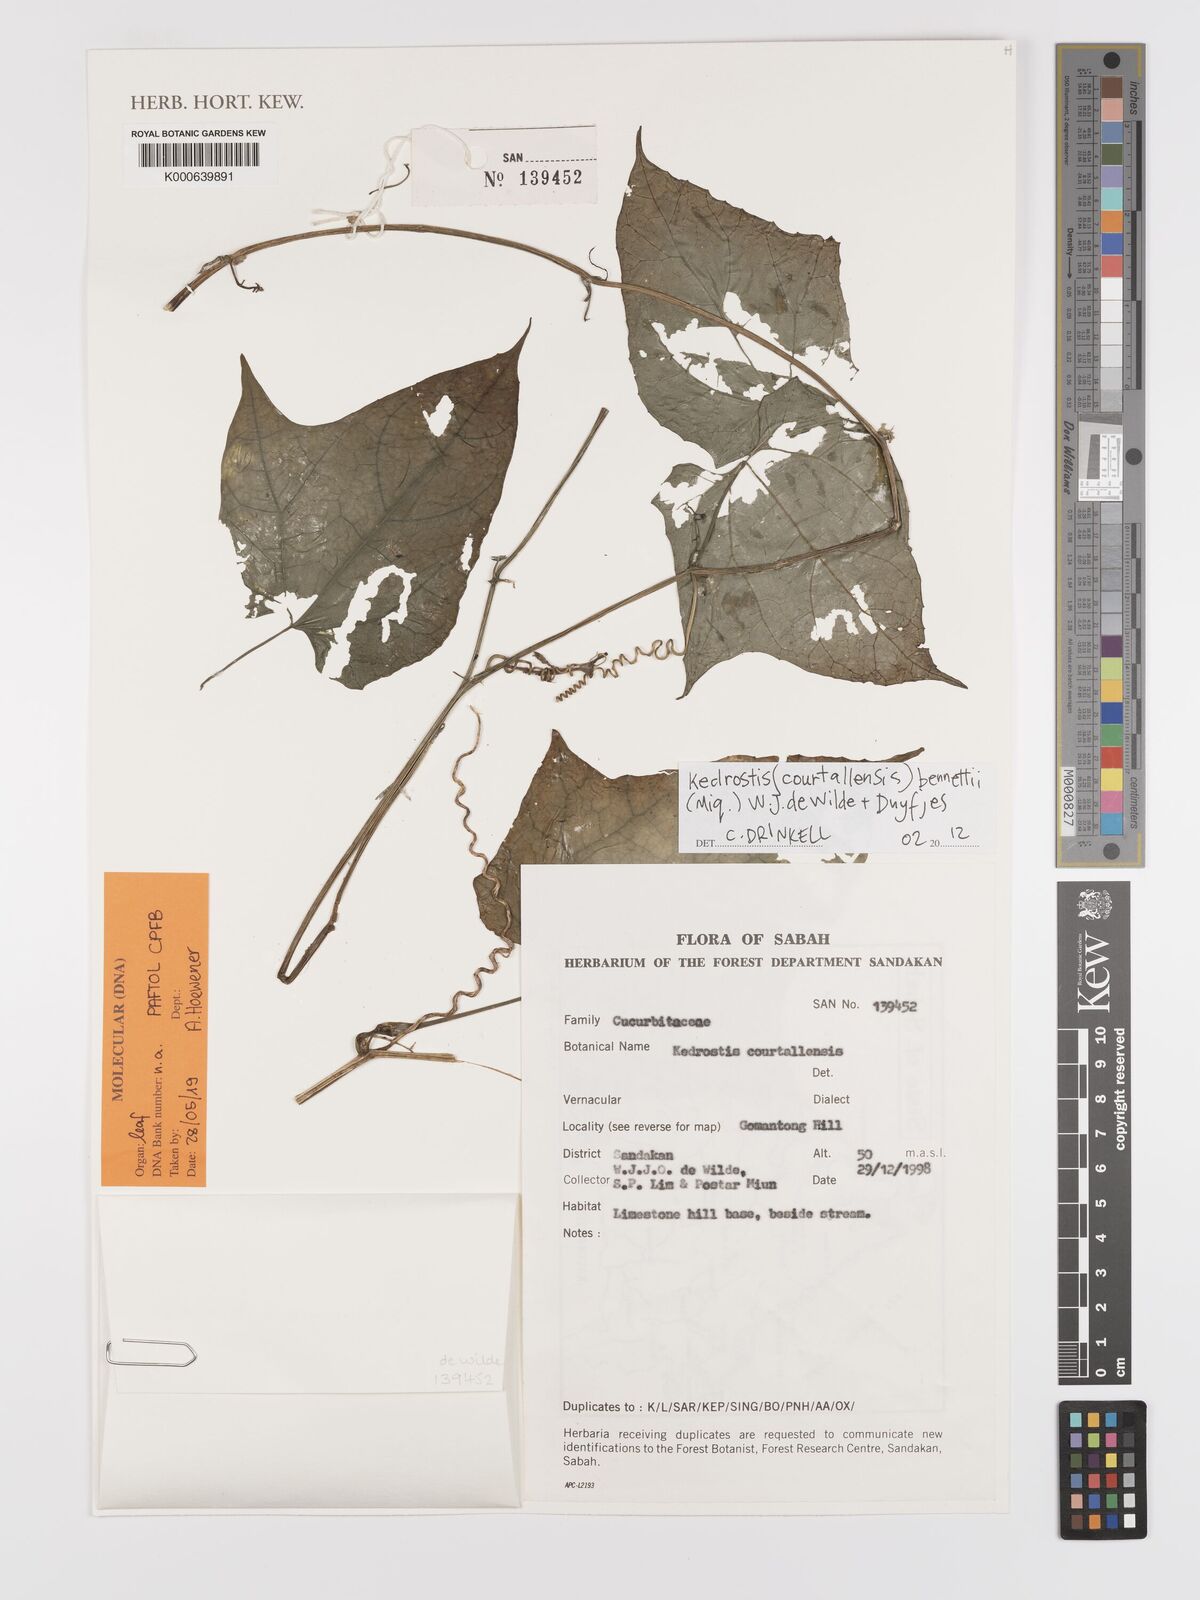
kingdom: Plantae
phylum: Tracheophyta
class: Magnoliopsida
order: Cucurbitales
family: Cucurbitaceae
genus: Kedrostis
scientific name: Kedrostis courtallensis
